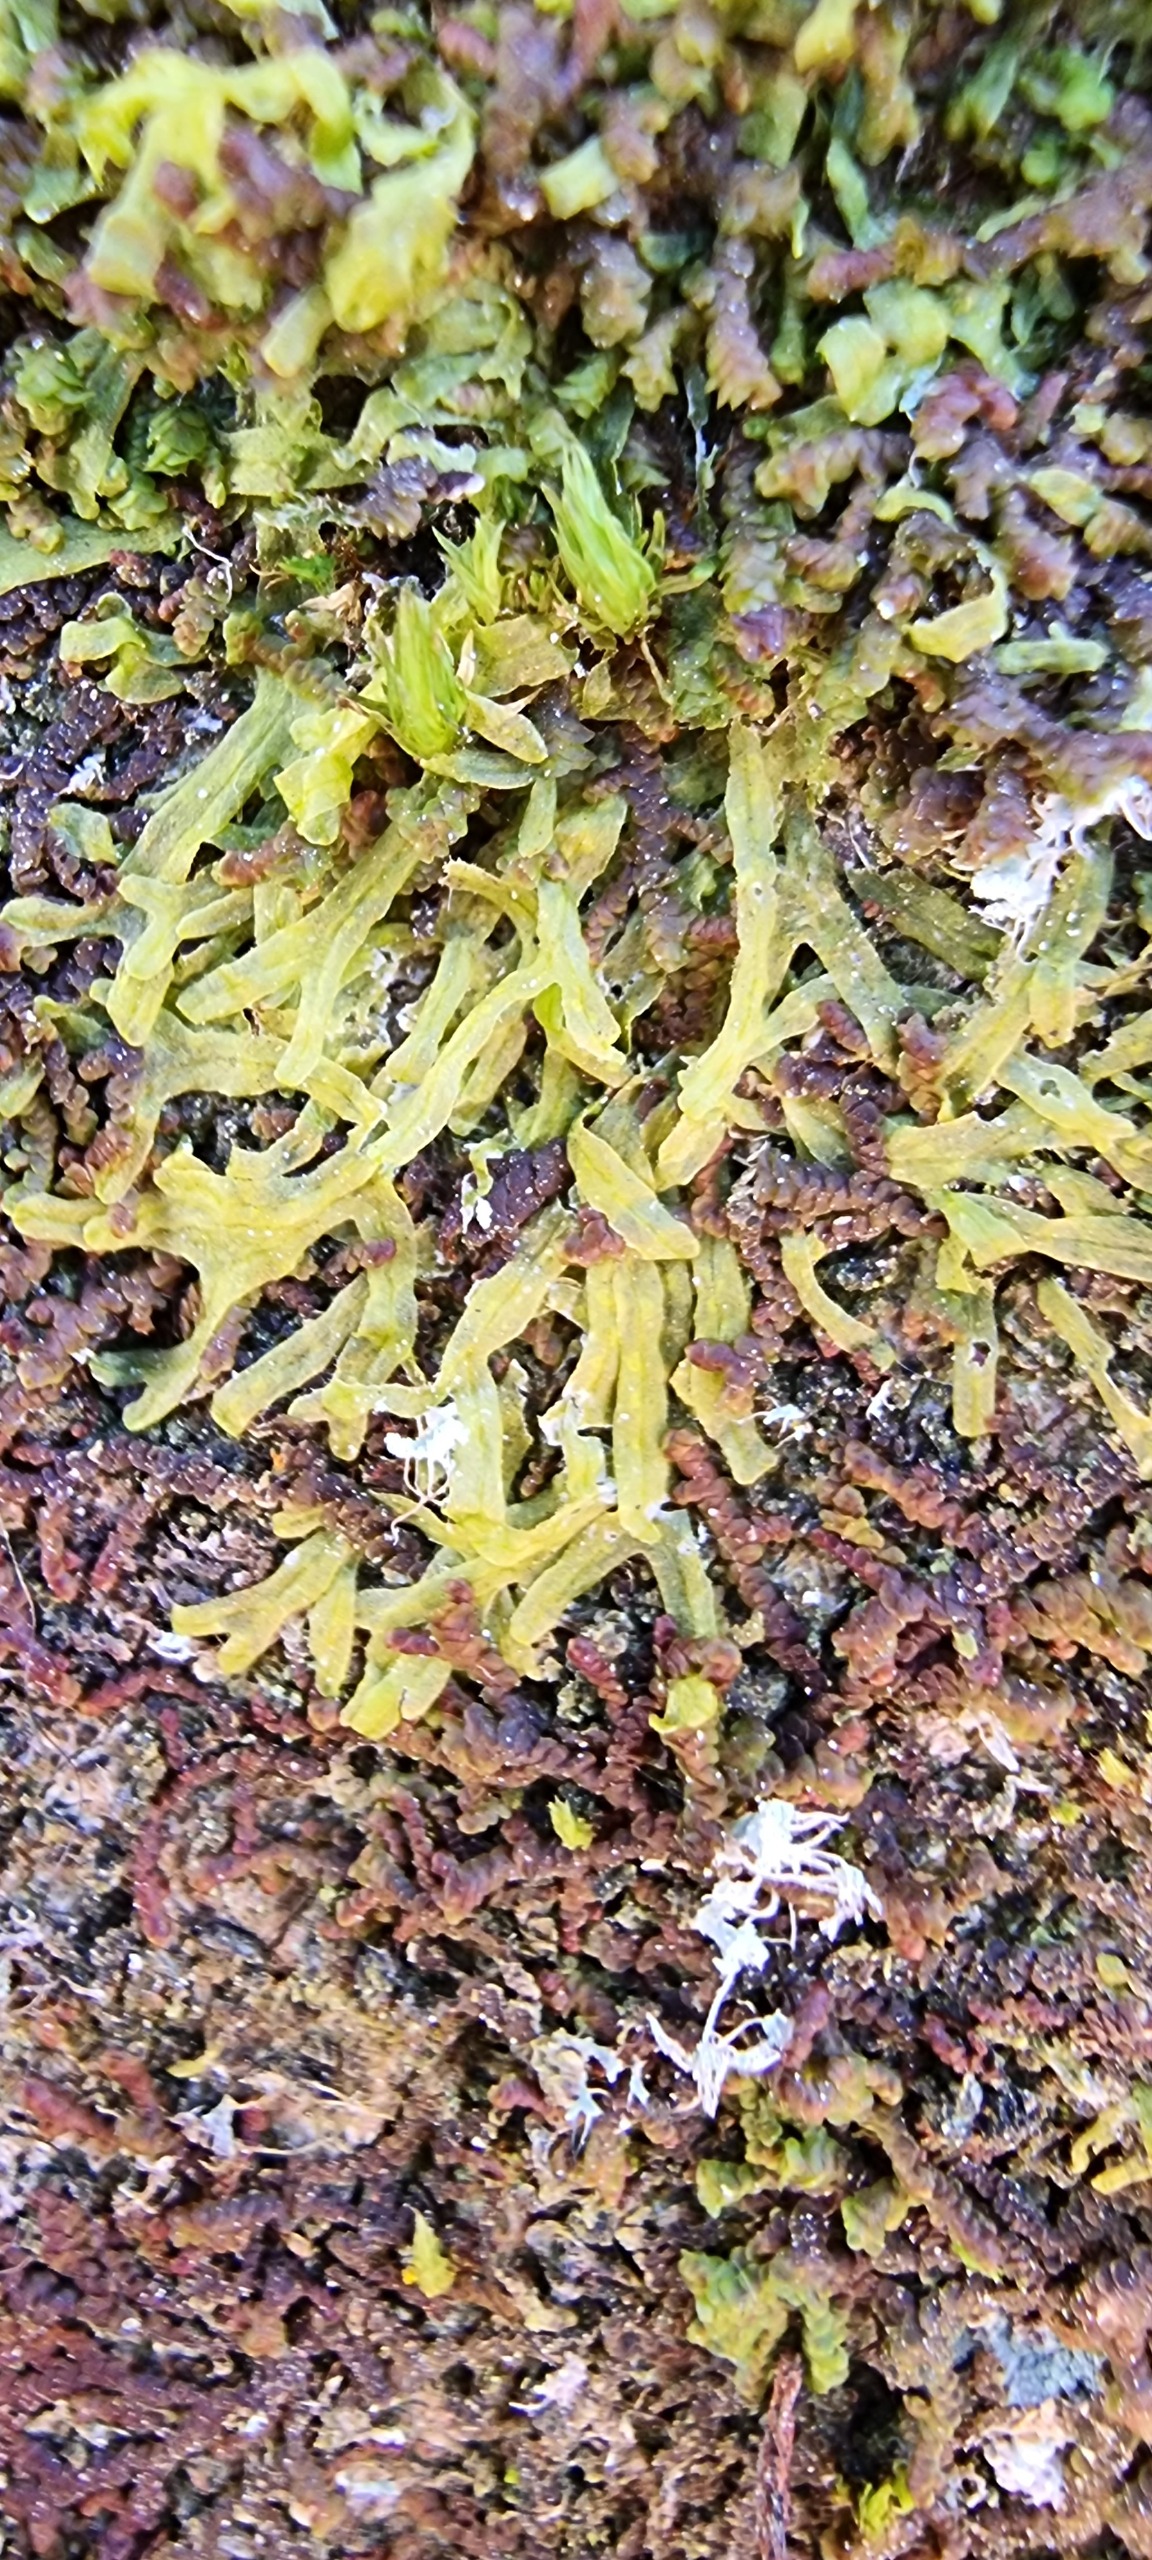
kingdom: Plantae
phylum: Marchantiophyta
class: Jungermanniopsida
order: Metzgeriales
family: Metzgeriaceae
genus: Metzgeria
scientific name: Metzgeria furcata
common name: Almindelig gaffelløv
